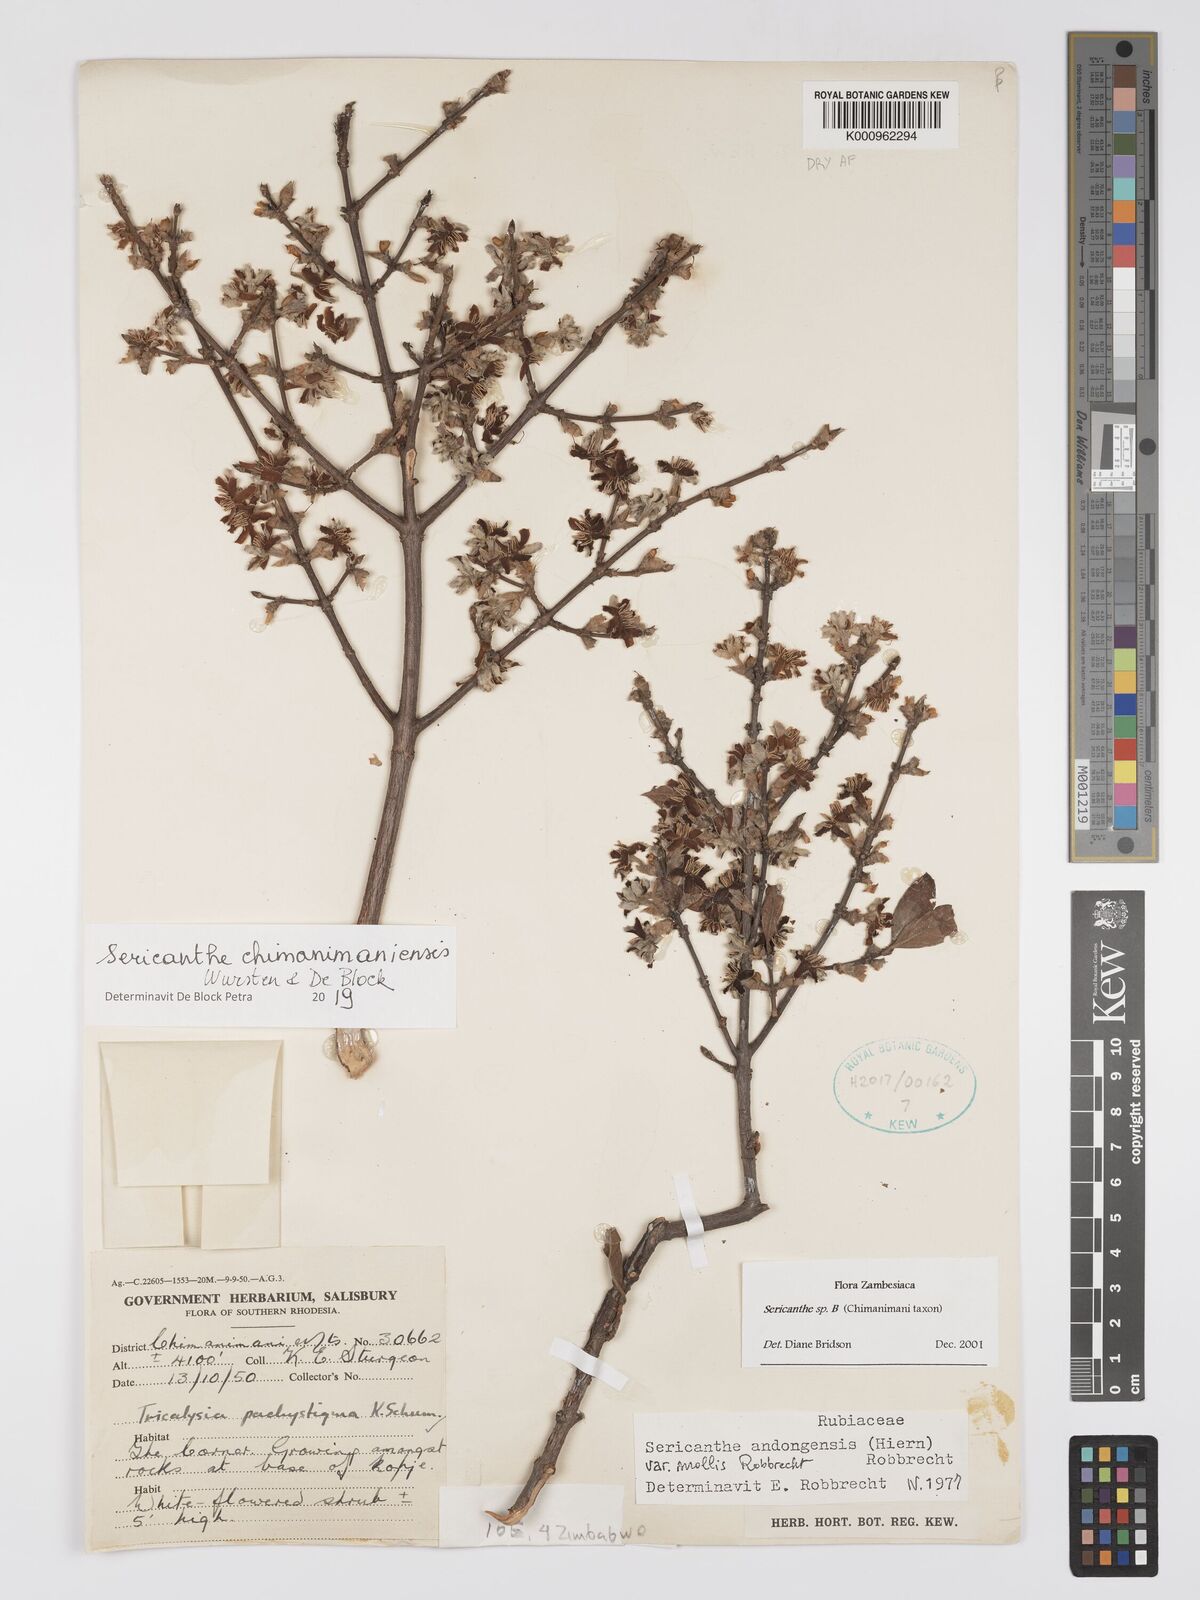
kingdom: Plantae
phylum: Tracheophyta
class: Magnoliopsida
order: Gentianales
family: Rubiaceae
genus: Sericanthe
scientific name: Sericanthe
